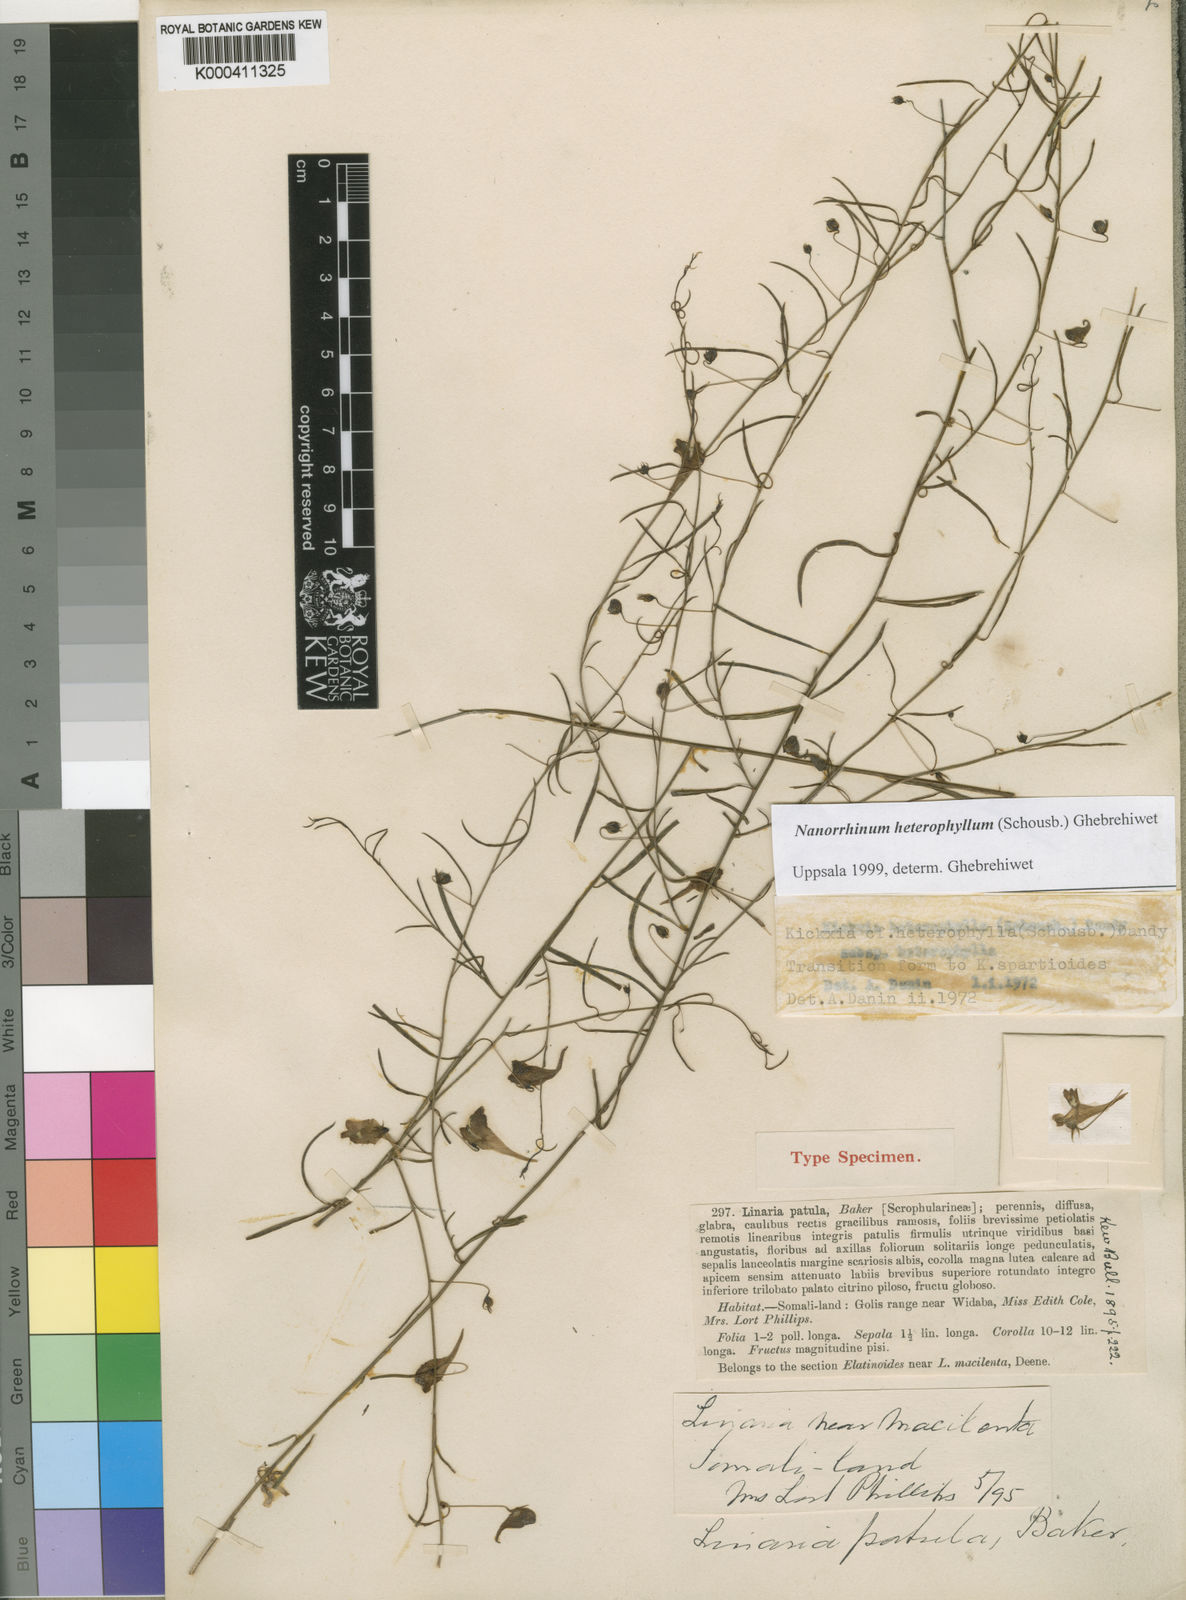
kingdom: Plantae
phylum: Tracheophyta
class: Magnoliopsida
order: Lamiales
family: Plantaginaceae
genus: Nanorrhinum
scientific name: Nanorrhinum heterophyllum
